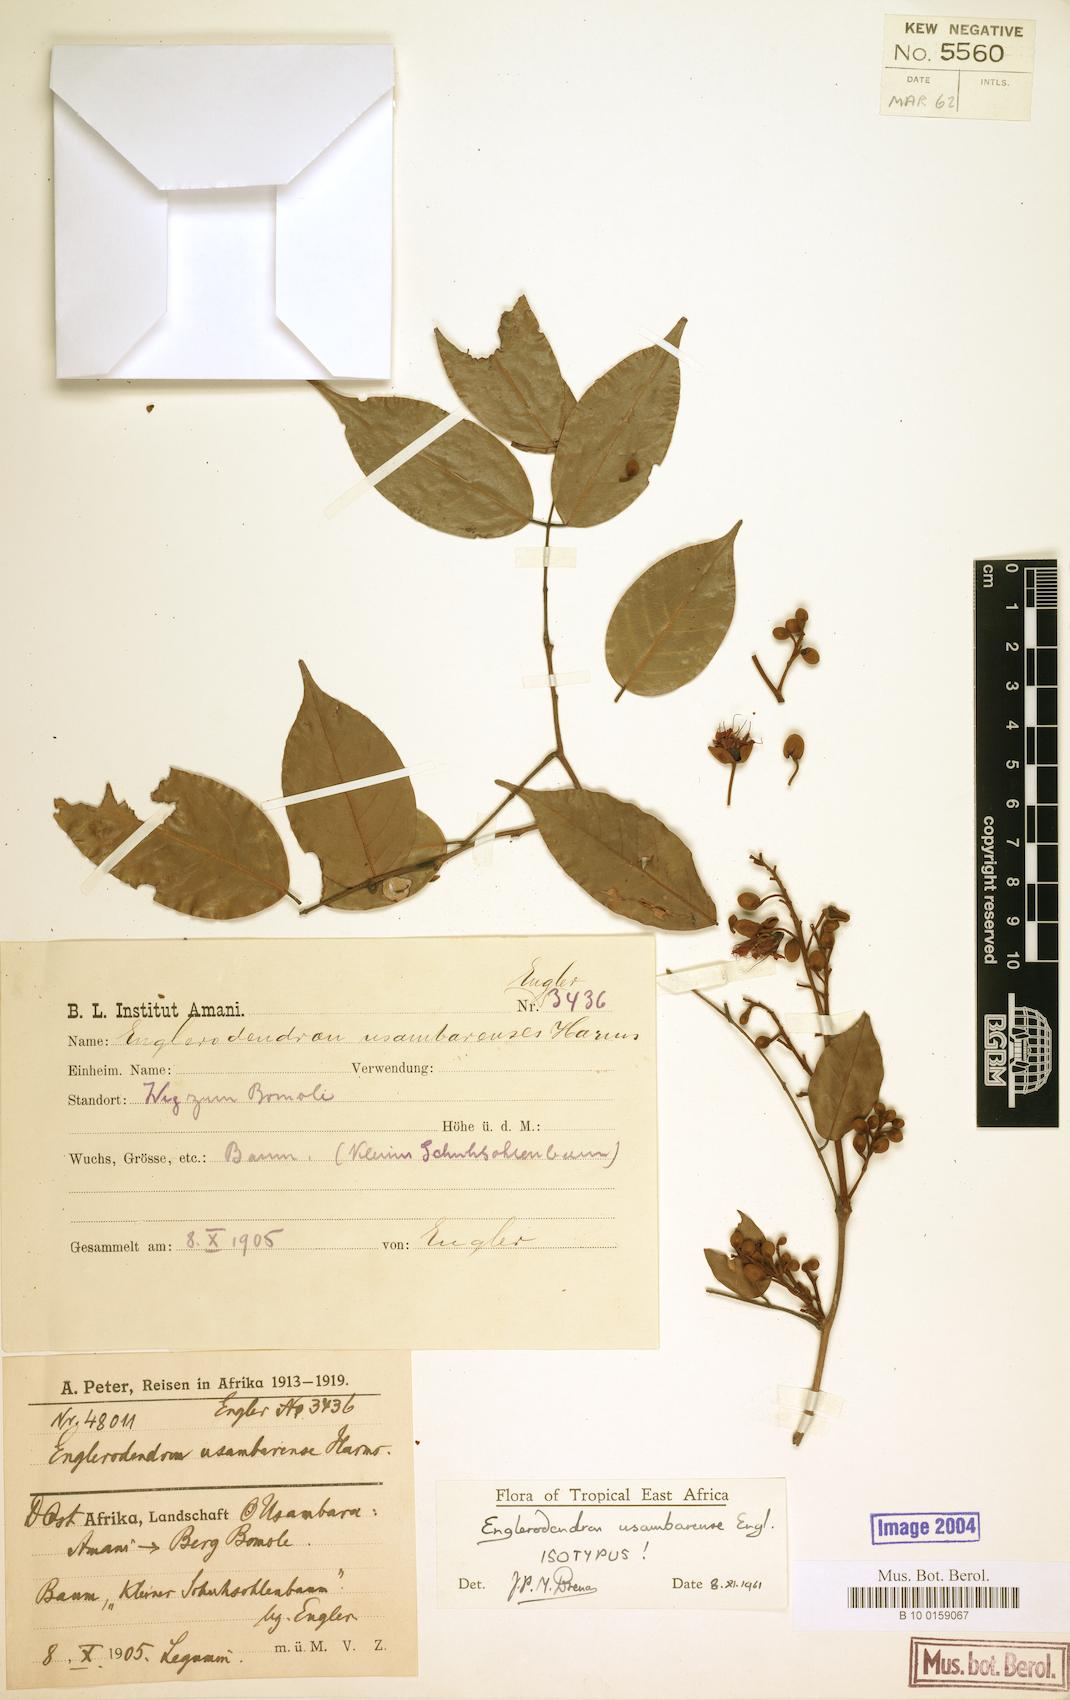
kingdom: Plantae
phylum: Tracheophyta
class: Magnoliopsida
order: Fabales
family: Fabaceae
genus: Englerodendron
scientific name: Englerodendron usambarense
